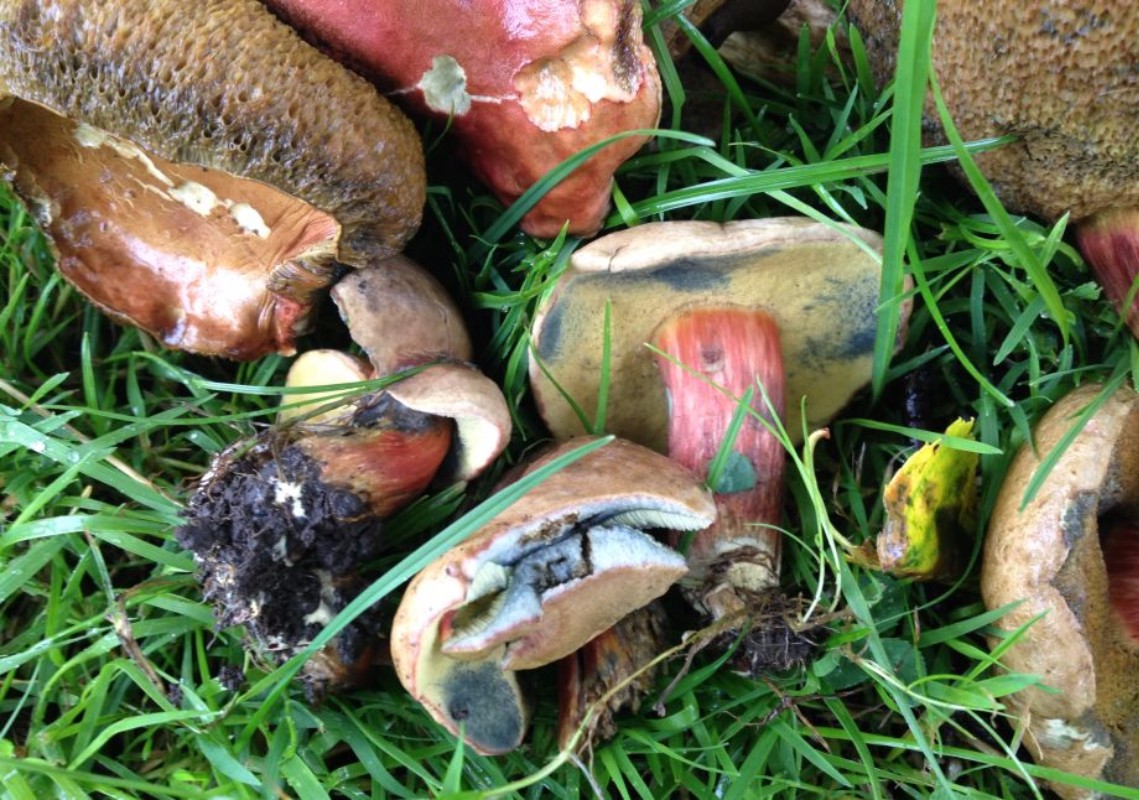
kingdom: Fungi
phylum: Basidiomycota
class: Agaricomycetes
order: Boletales
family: Boletaceae
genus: Hortiboletus
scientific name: Hortiboletus rubellus
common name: blodrød rørhat
